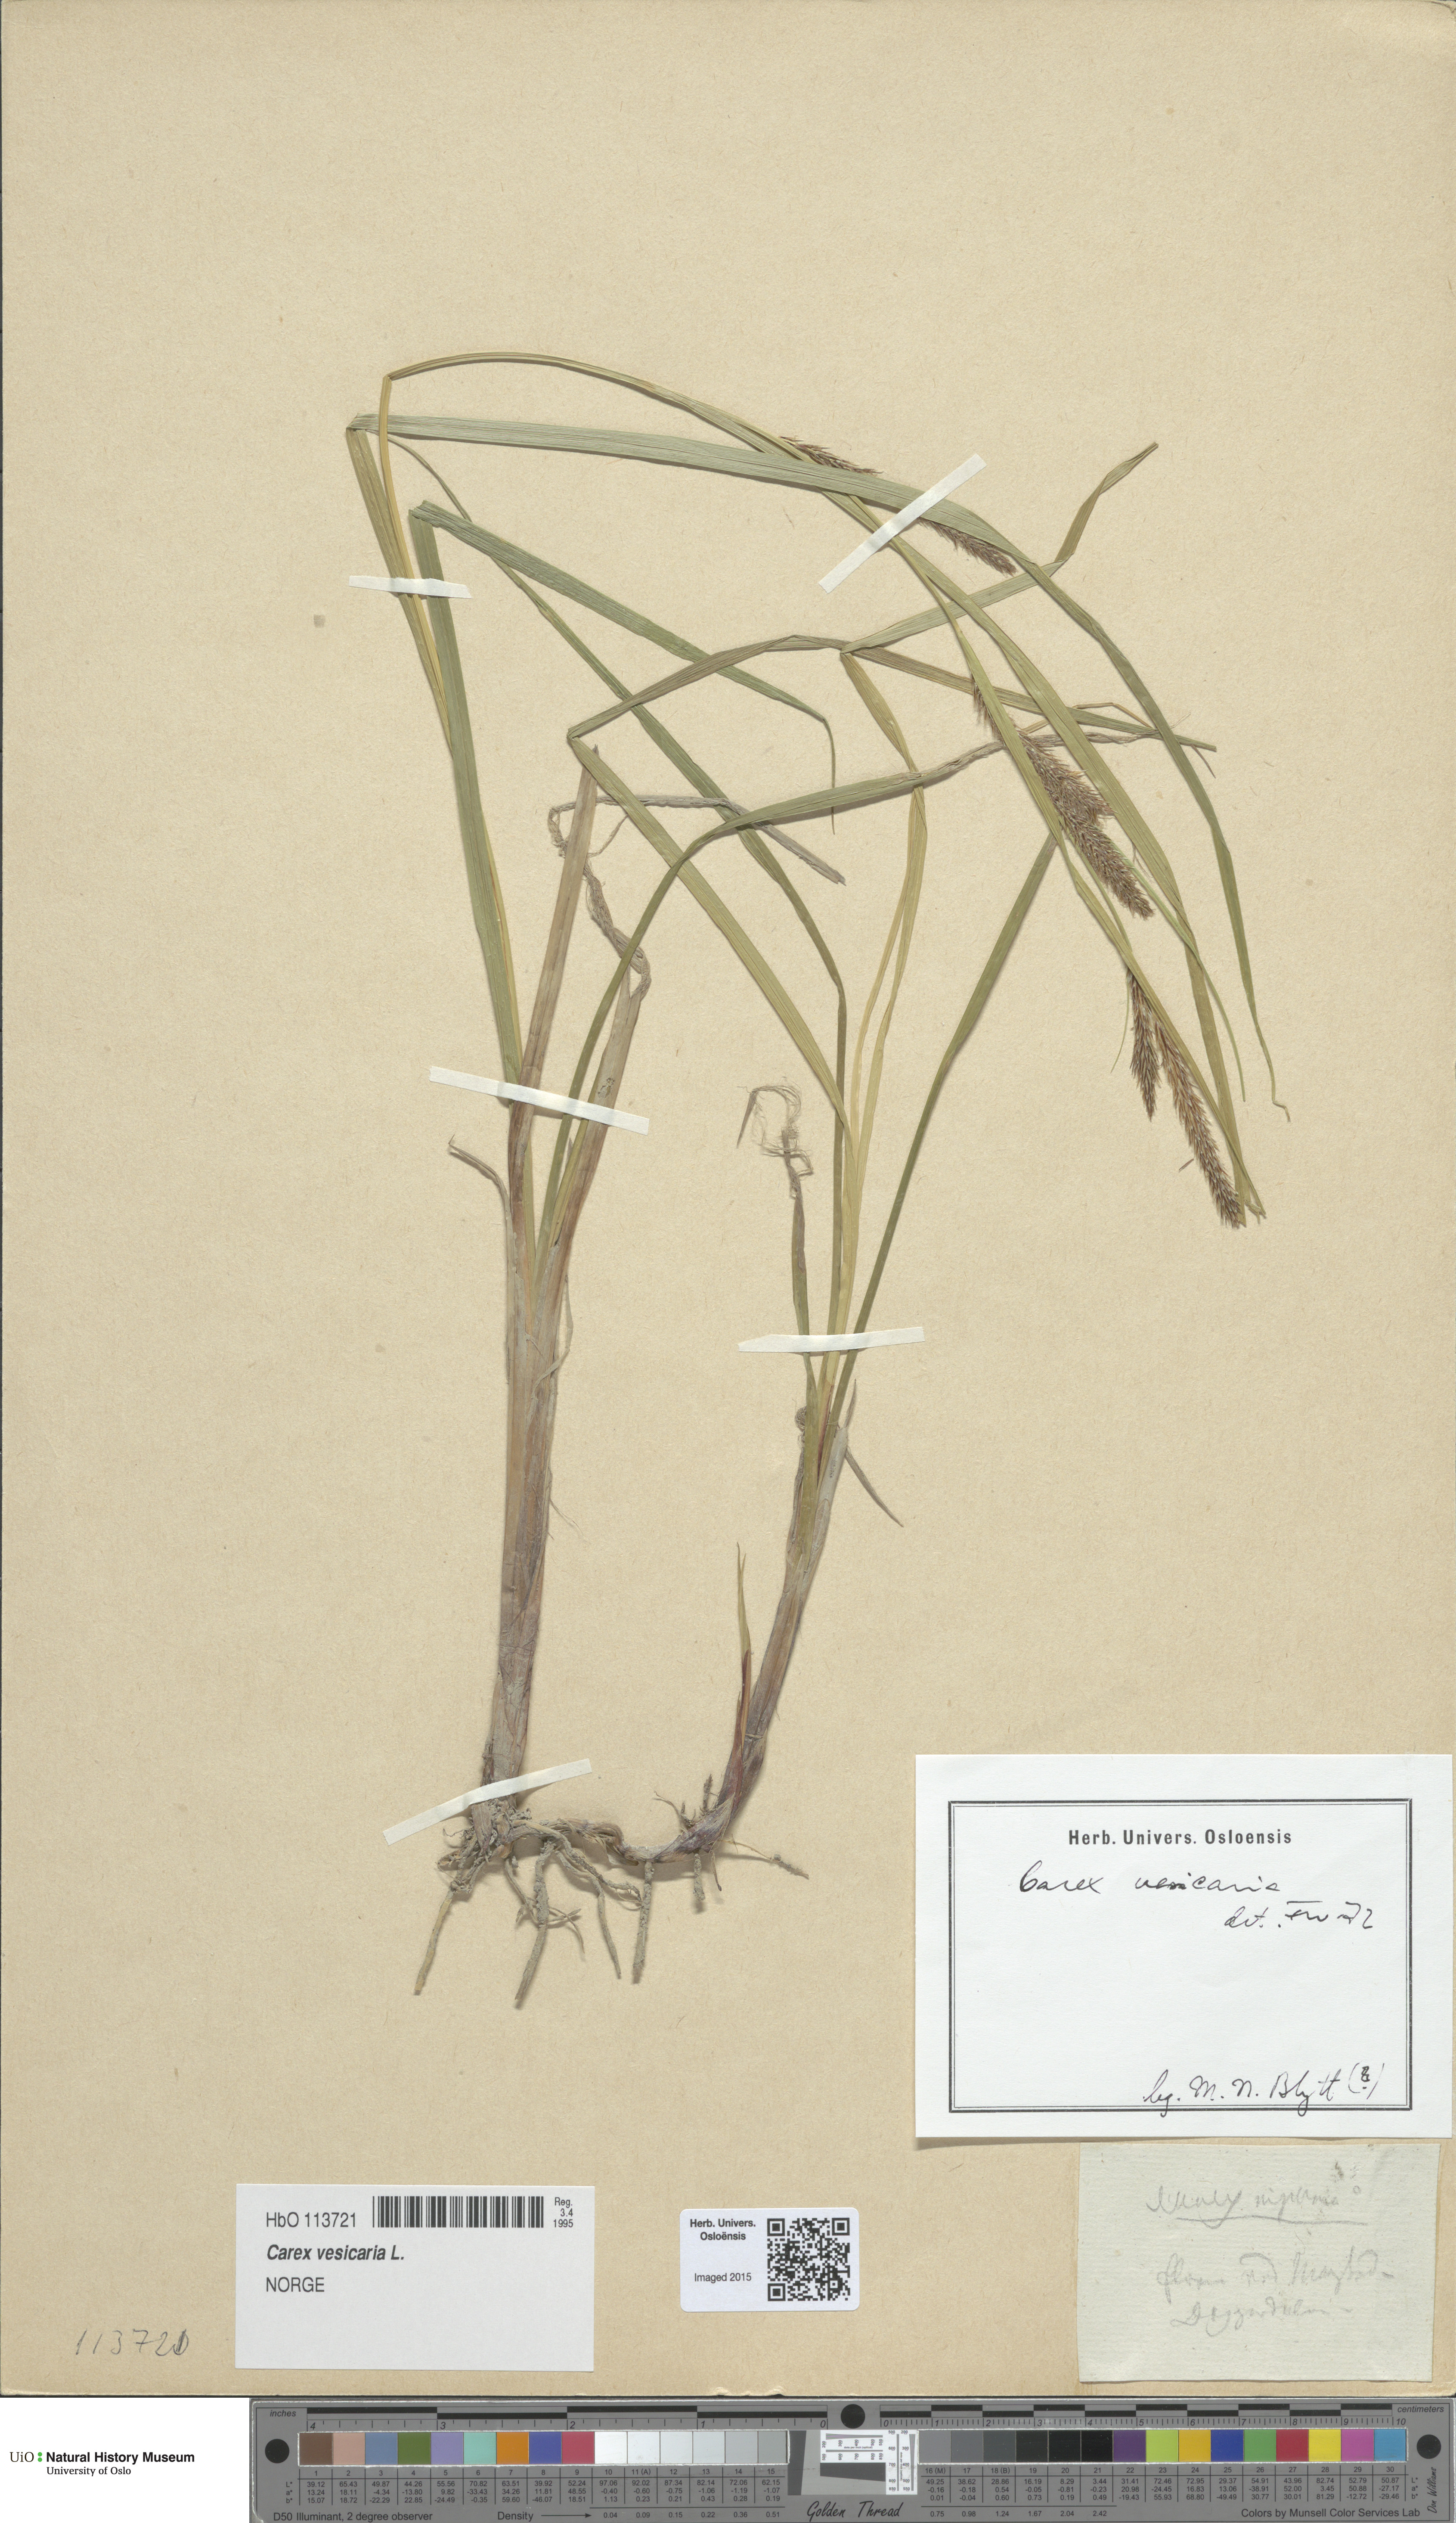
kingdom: Plantae
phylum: Tracheophyta
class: Liliopsida
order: Poales
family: Cyperaceae
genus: Carex
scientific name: Carex vesicaria
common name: Bladder-sedge
